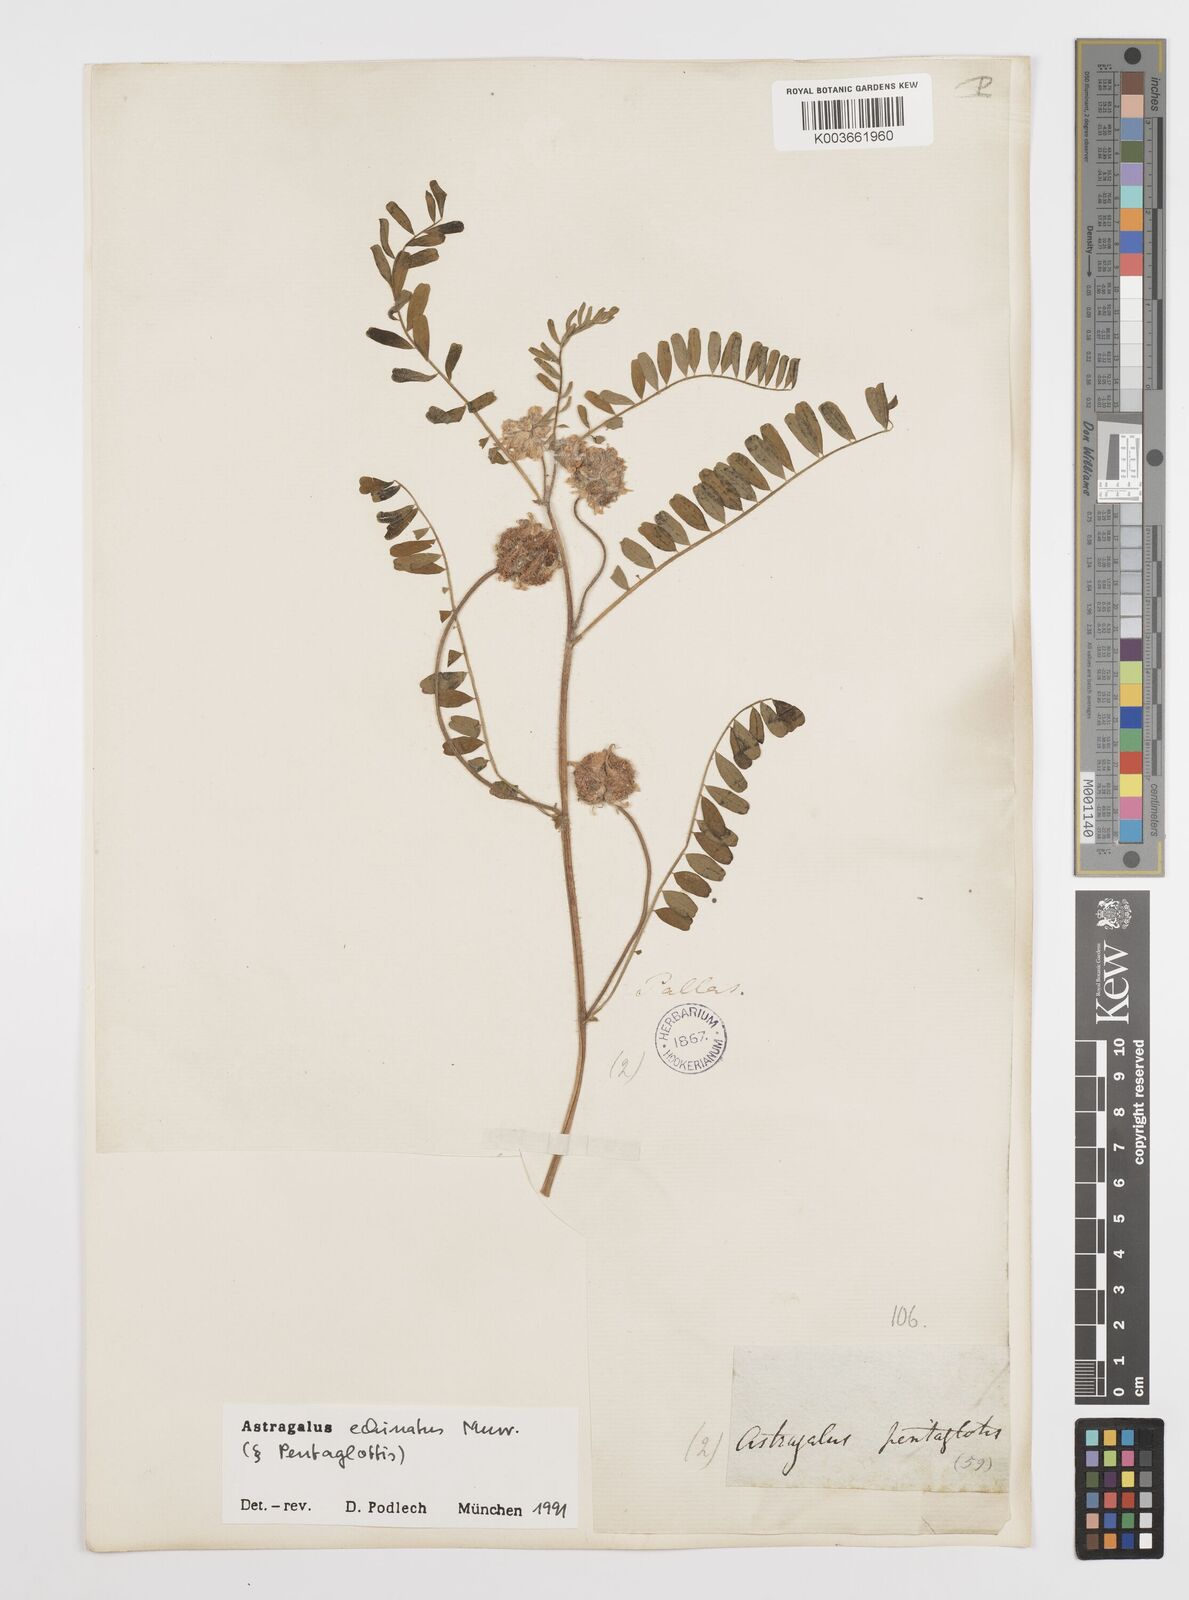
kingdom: Plantae
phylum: Tracheophyta
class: Magnoliopsida
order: Fabales
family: Fabaceae
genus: Astragalus
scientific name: Astragalus echinatus
